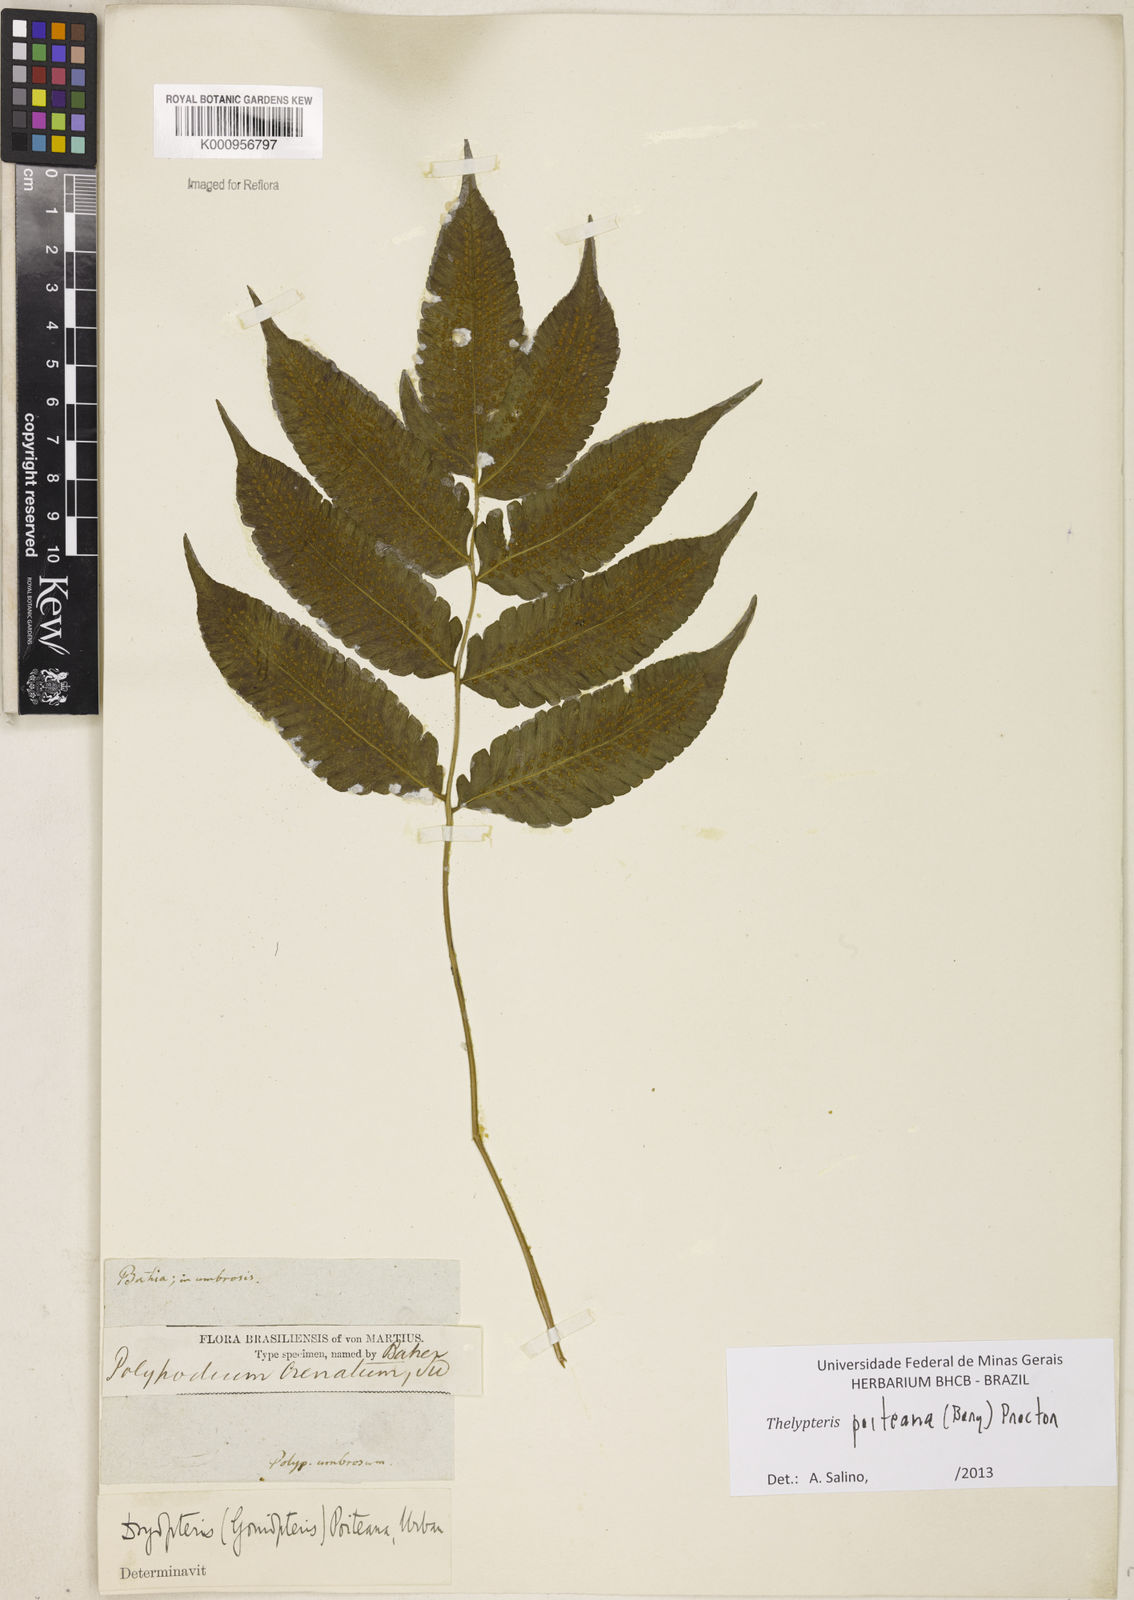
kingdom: Plantae
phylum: Tracheophyta
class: Polypodiopsida
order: Polypodiales
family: Thelypteridaceae
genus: Goniopteris
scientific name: Goniopteris poiteana
